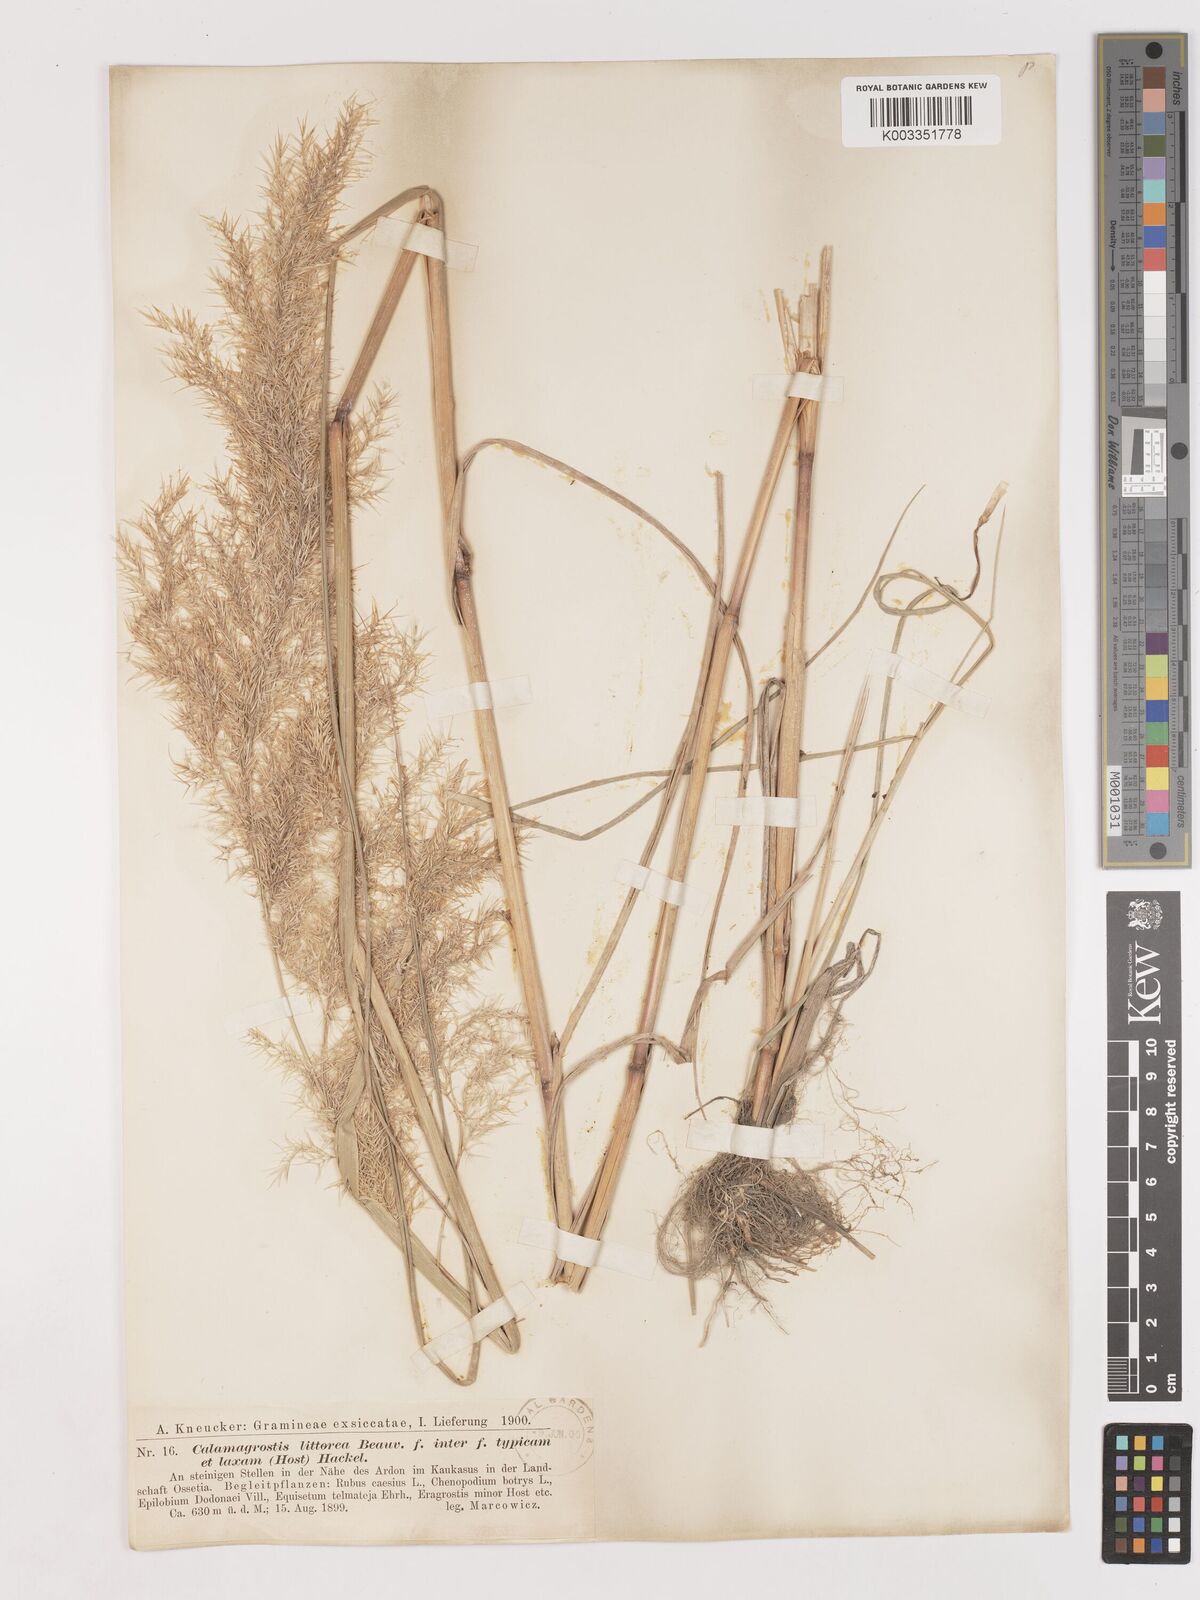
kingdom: Plantae
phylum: Tracheophyta
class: Liliopsida
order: Poales
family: Poaceae
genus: Calamagrostis
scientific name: Calamagrostis pseudophragmites
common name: Coastal small-reed
